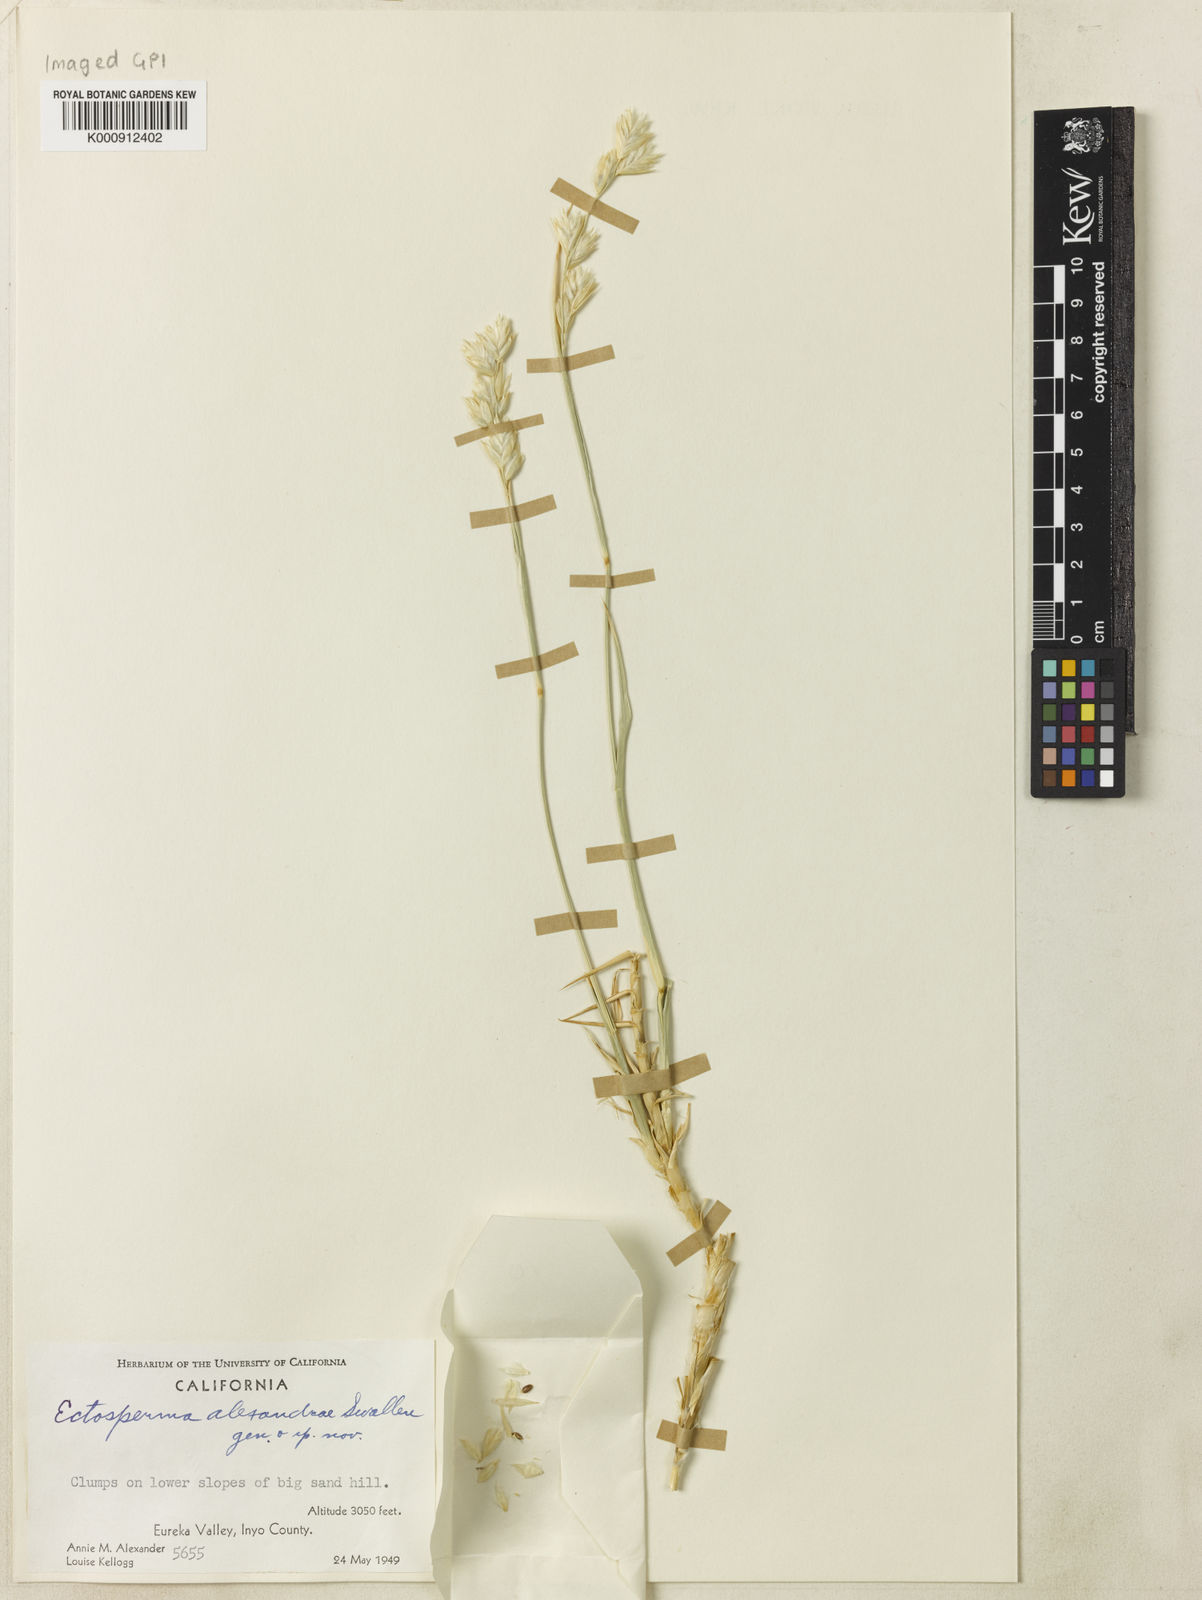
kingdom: Plantae
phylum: Tracheophyta
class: Liliopsida
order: Poales
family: Poaceae
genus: Swallenia
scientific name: Swallenia alexandrae
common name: Eureka dune grass
